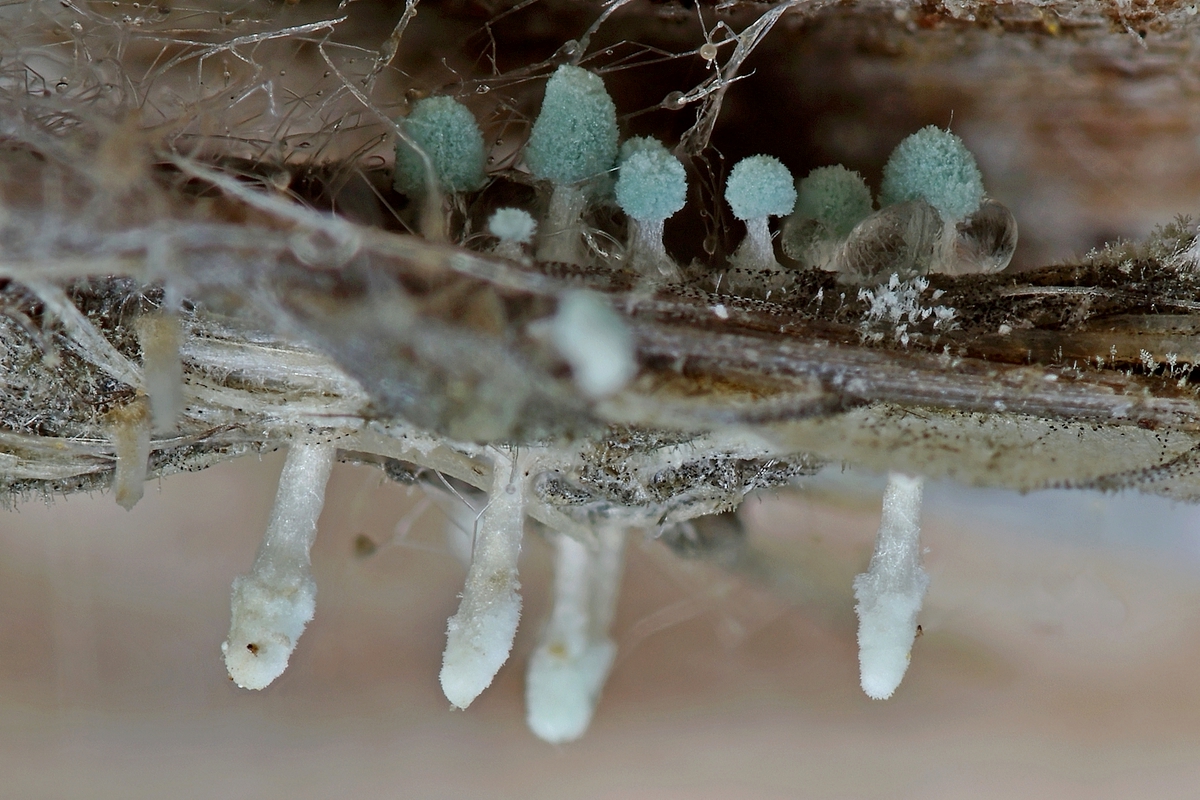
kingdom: Fungi
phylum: Ascomycota
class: Eurotiomycetes
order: Eurotiales
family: Aspergillaceae
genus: Penicillium
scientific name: Penicillium
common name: penselskimmel
